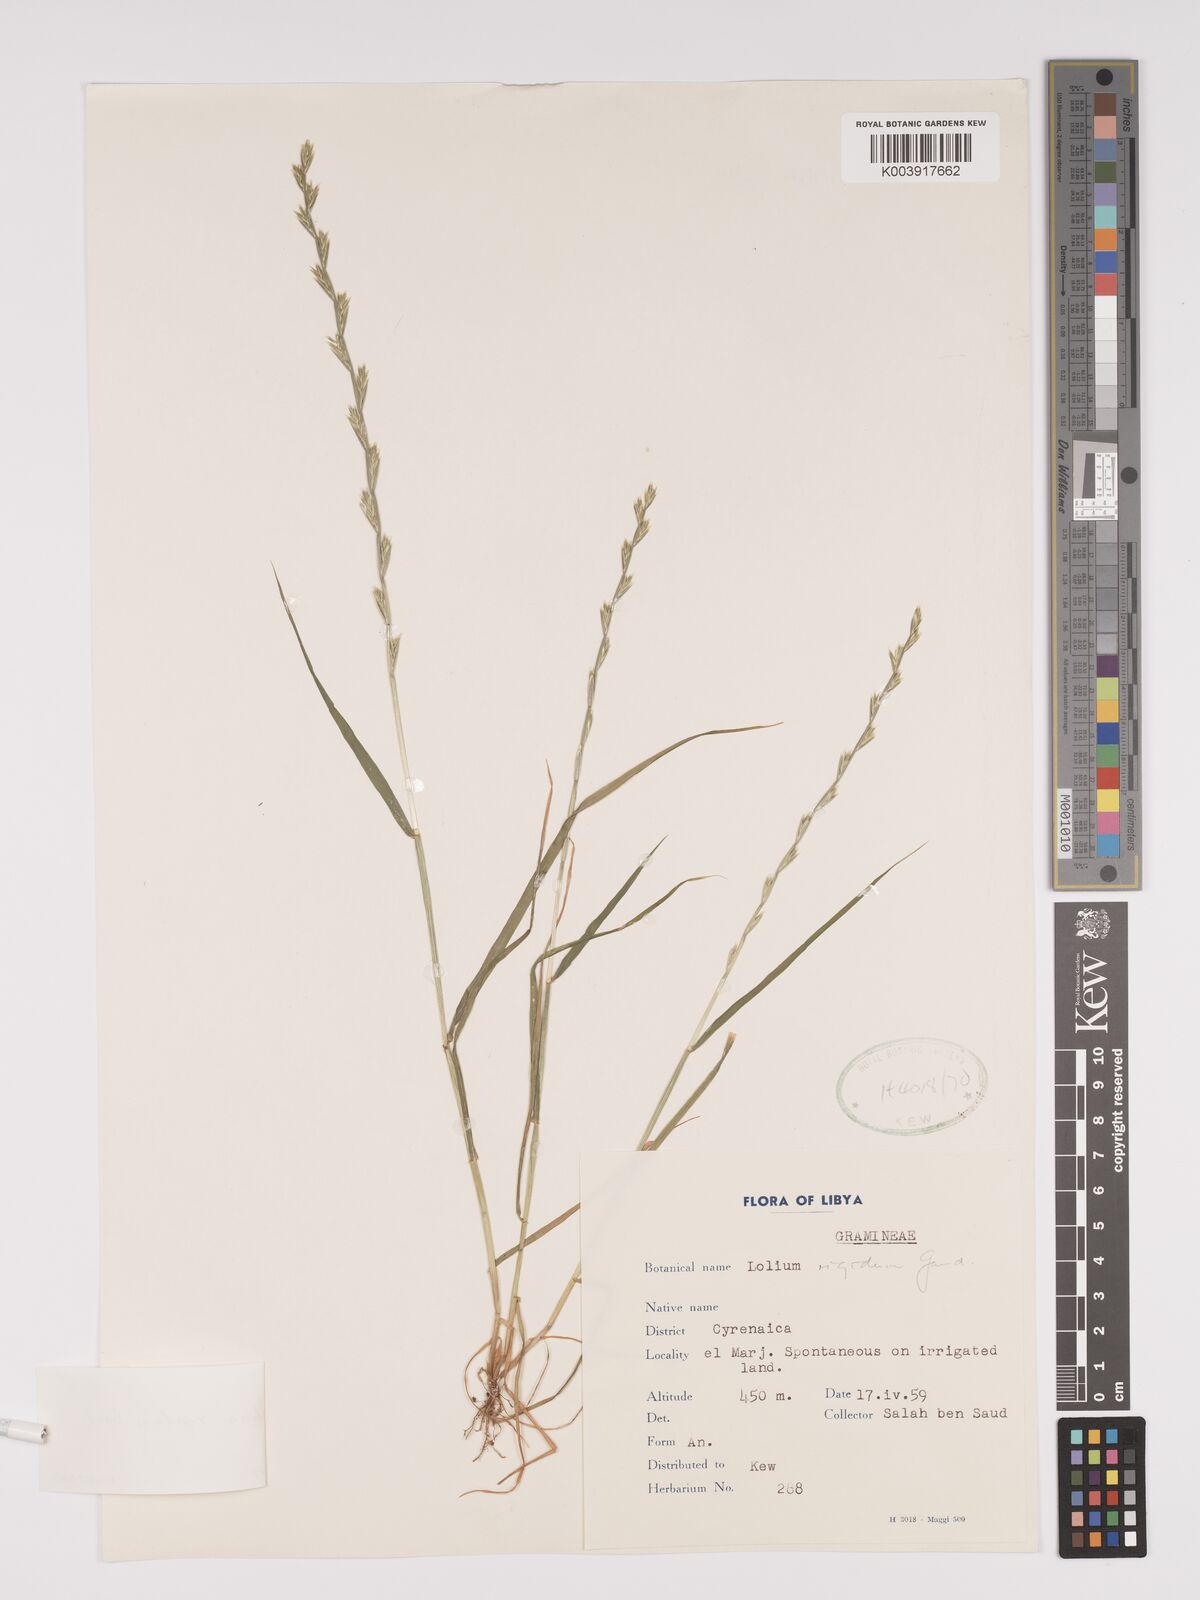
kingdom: Plantae
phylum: Tracheophyta
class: Liliopsida
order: Poales
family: Poaceae
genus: Lolium
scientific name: Lolium rigidum
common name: Wimmera ryegrass
